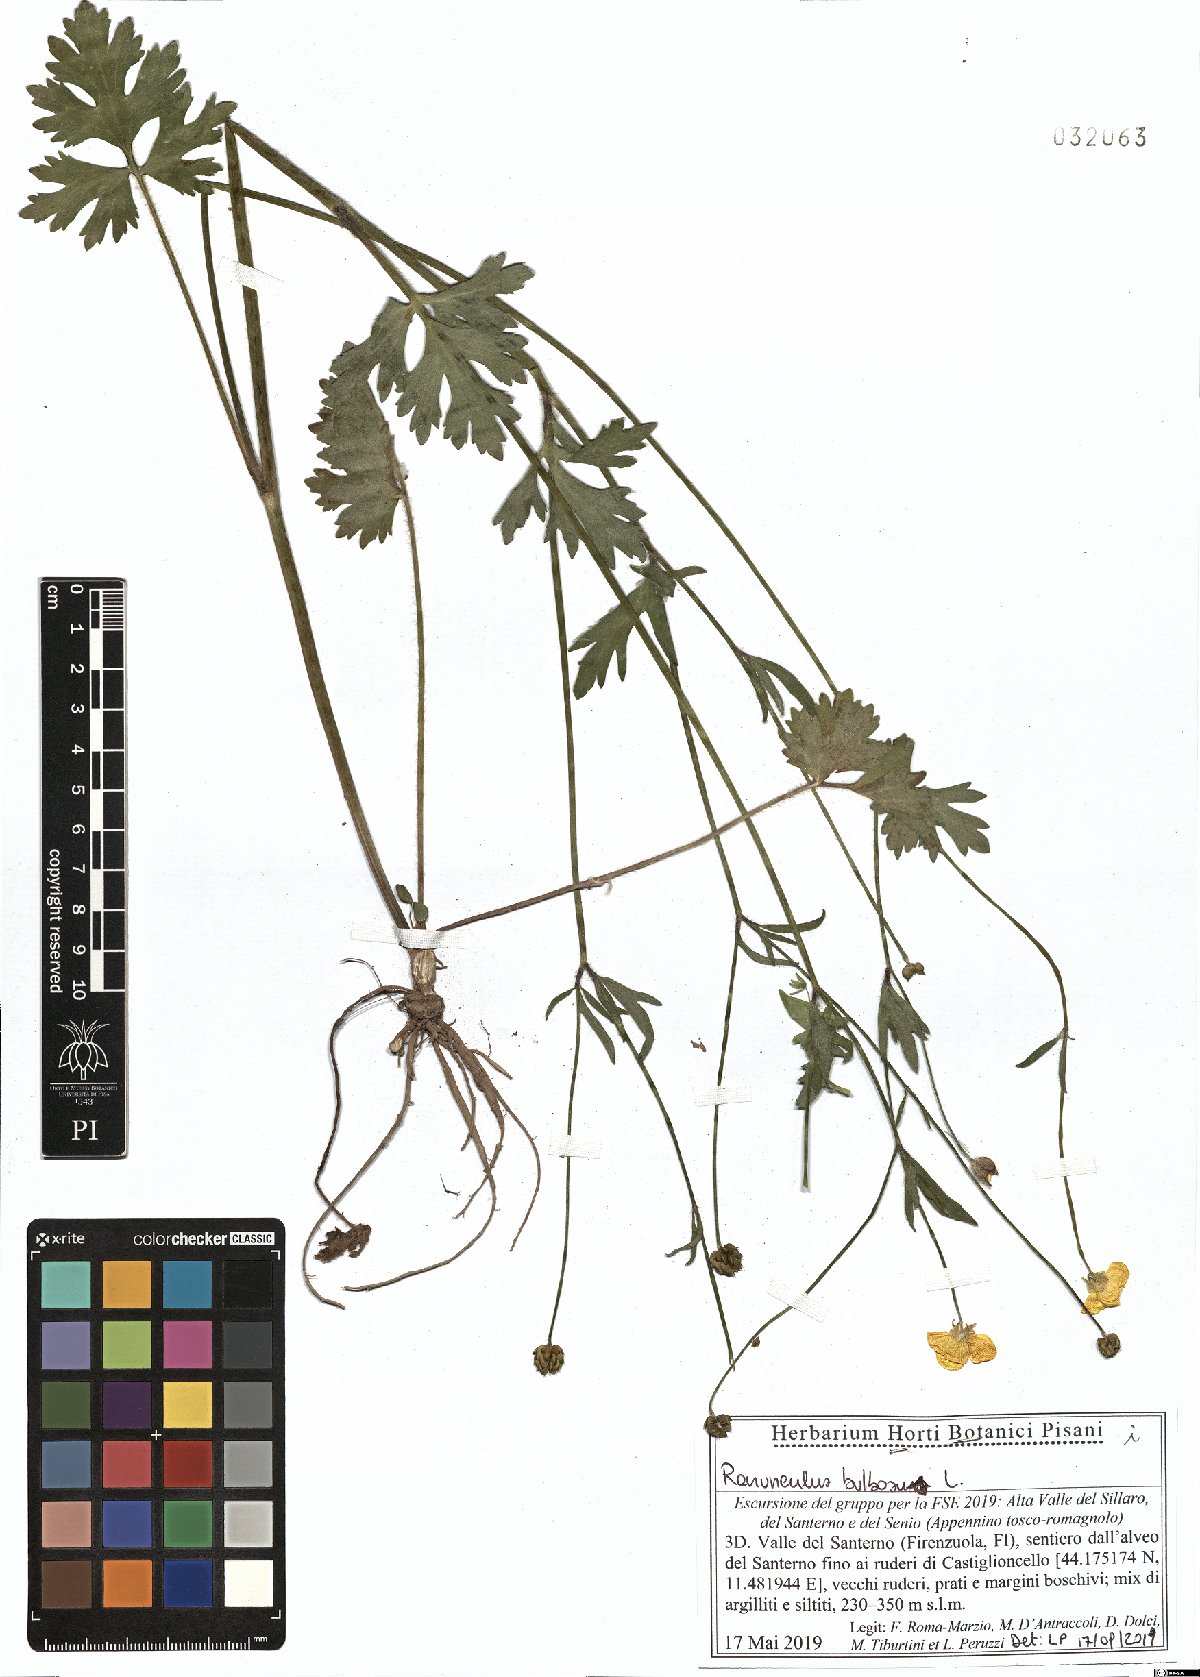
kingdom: Plantae
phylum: Tracheophyta
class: Magnoliopsida
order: Ranunculales
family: Ranunculaceae
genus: Ranunculus
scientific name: Ranunculus bulbosus
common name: Bulbous buttercup
